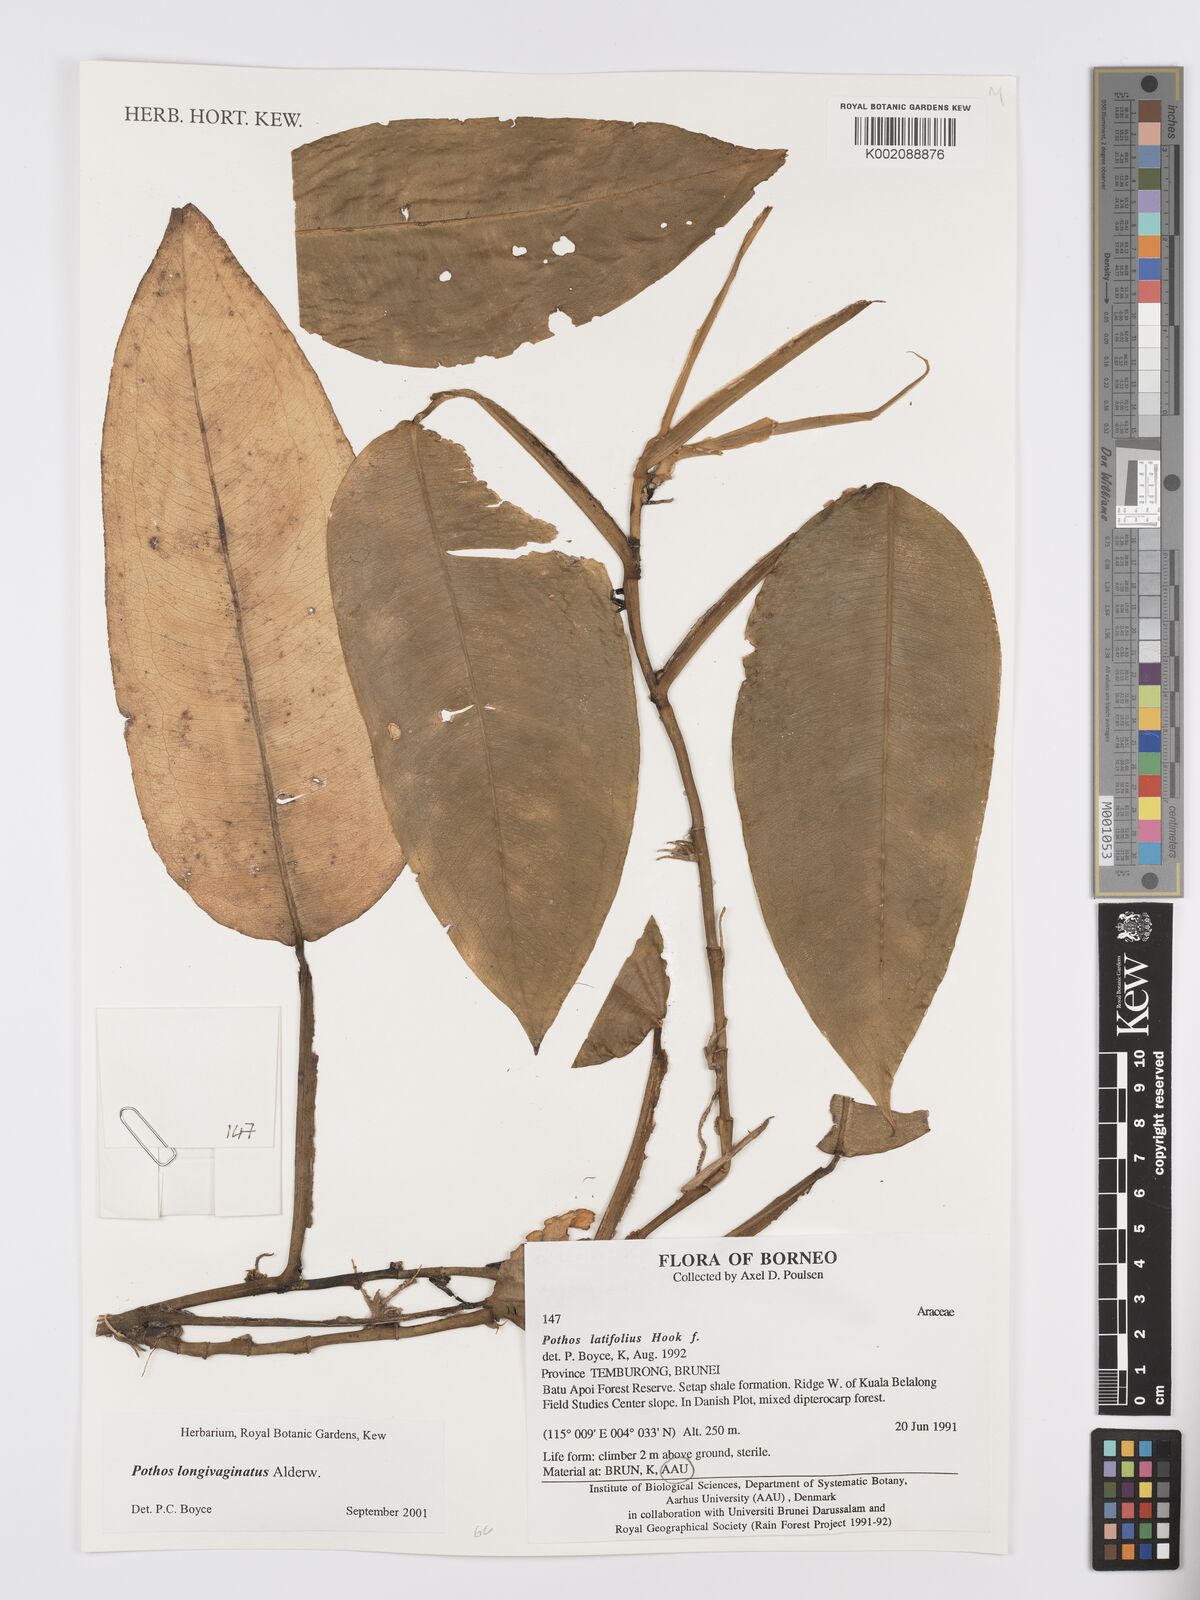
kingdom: Plantae
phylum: Tracheophyta
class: Liliopsida
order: Alismatales
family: Araceae
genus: Pothos
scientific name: Pothos longivaginatus
